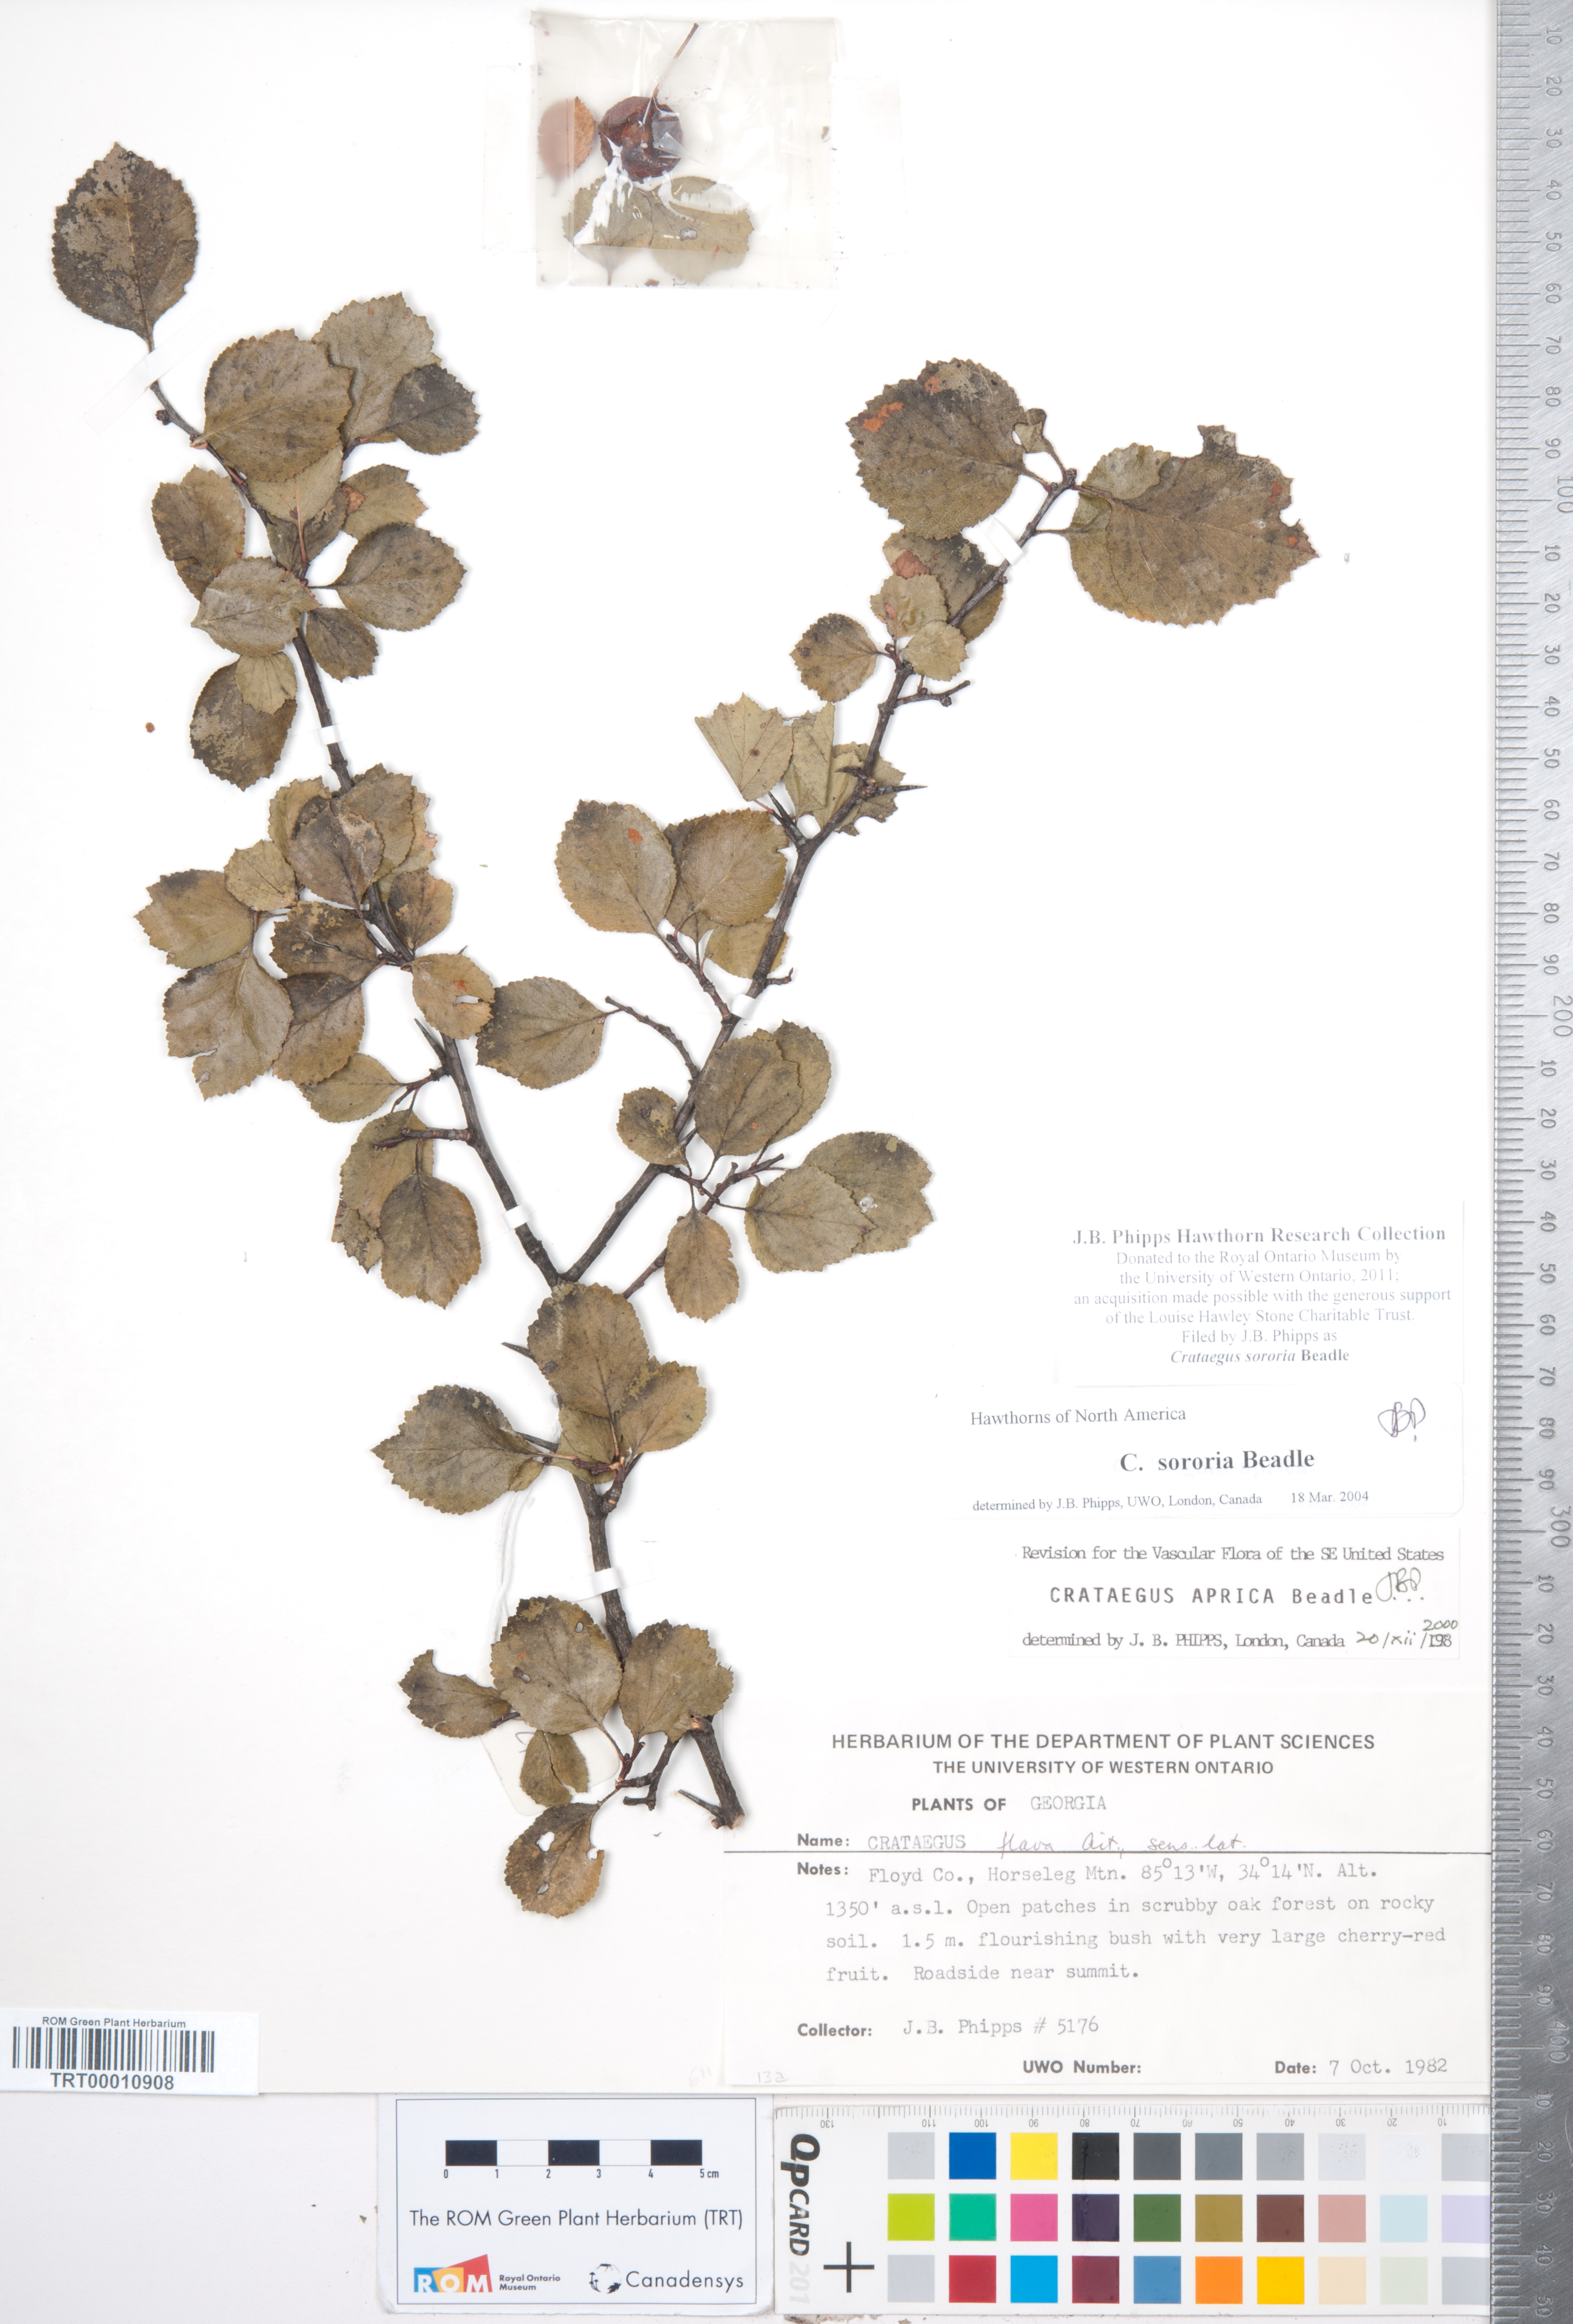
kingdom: Plantae
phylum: Tracheophyta
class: Magnoliopsida
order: Rosales
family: Rosaceae
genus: Crataegus
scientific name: Crataegus sororia
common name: Sister hawthorn
